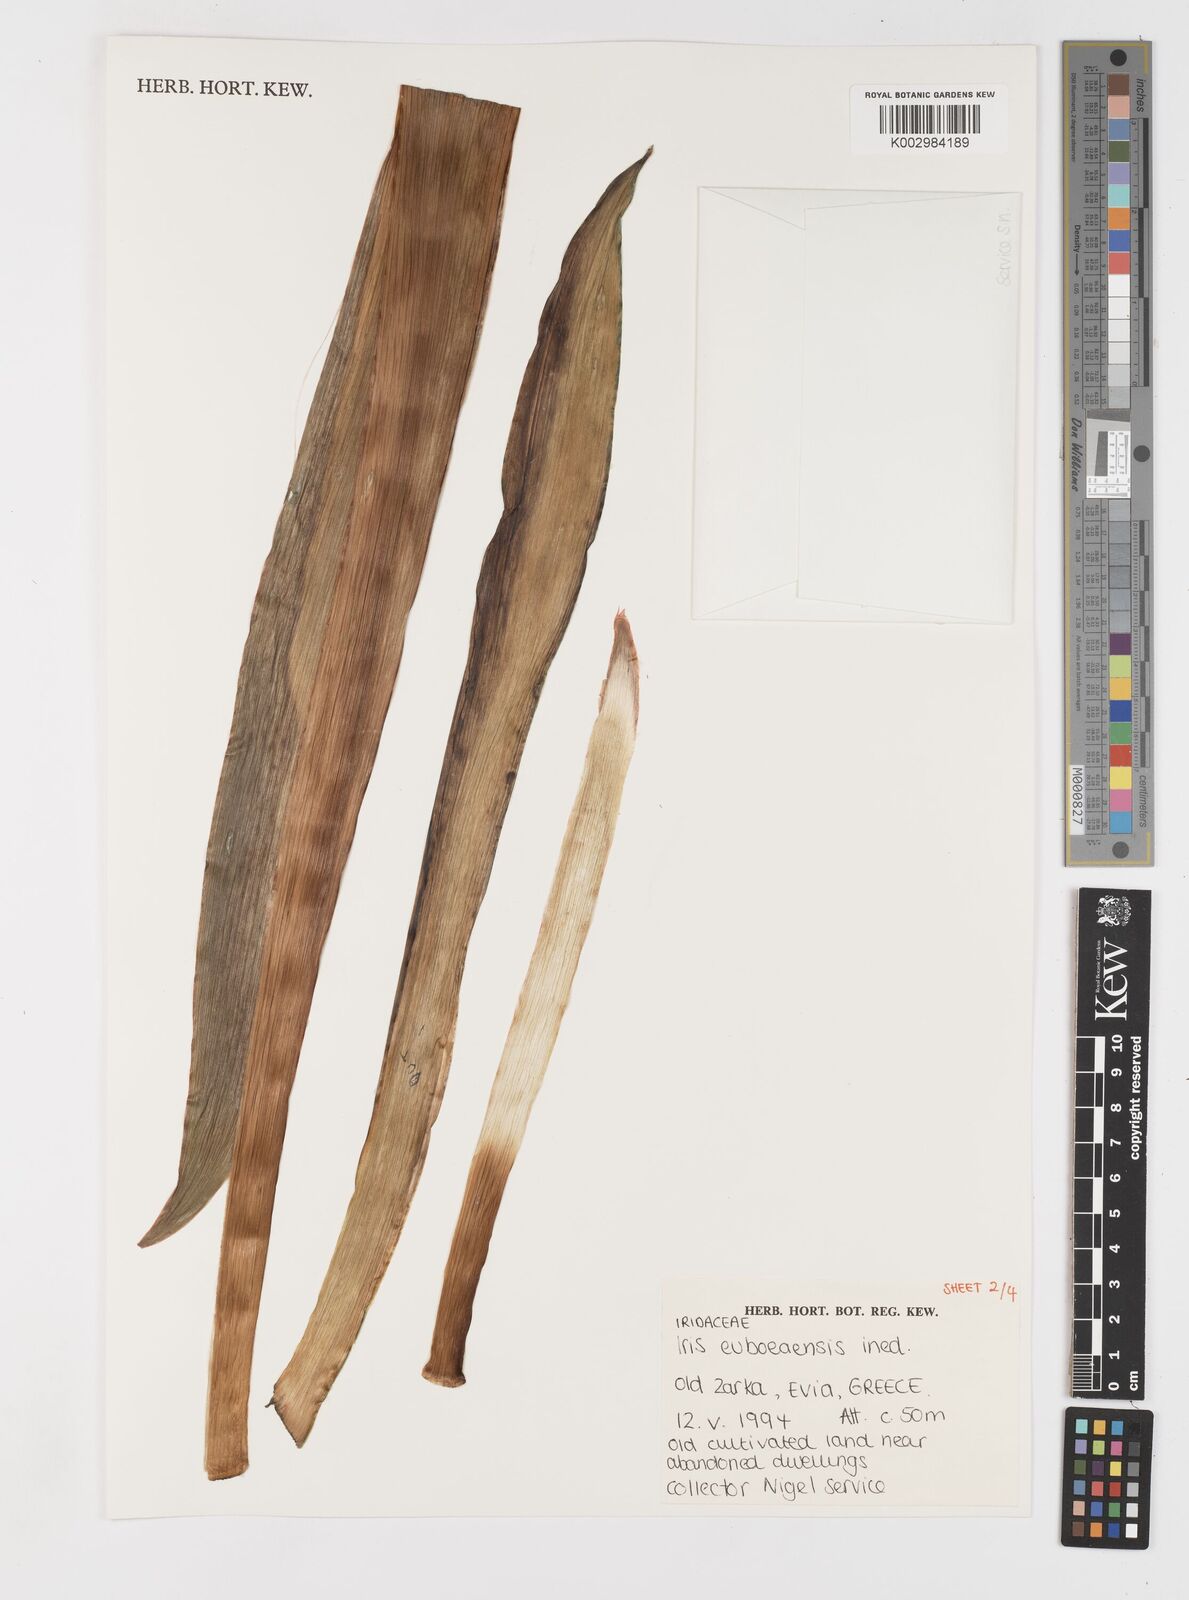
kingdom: Plantae
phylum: Tracheophyta
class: Liliopsida
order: Asparagales
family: Iridaceae
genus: Iris
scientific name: Iris
